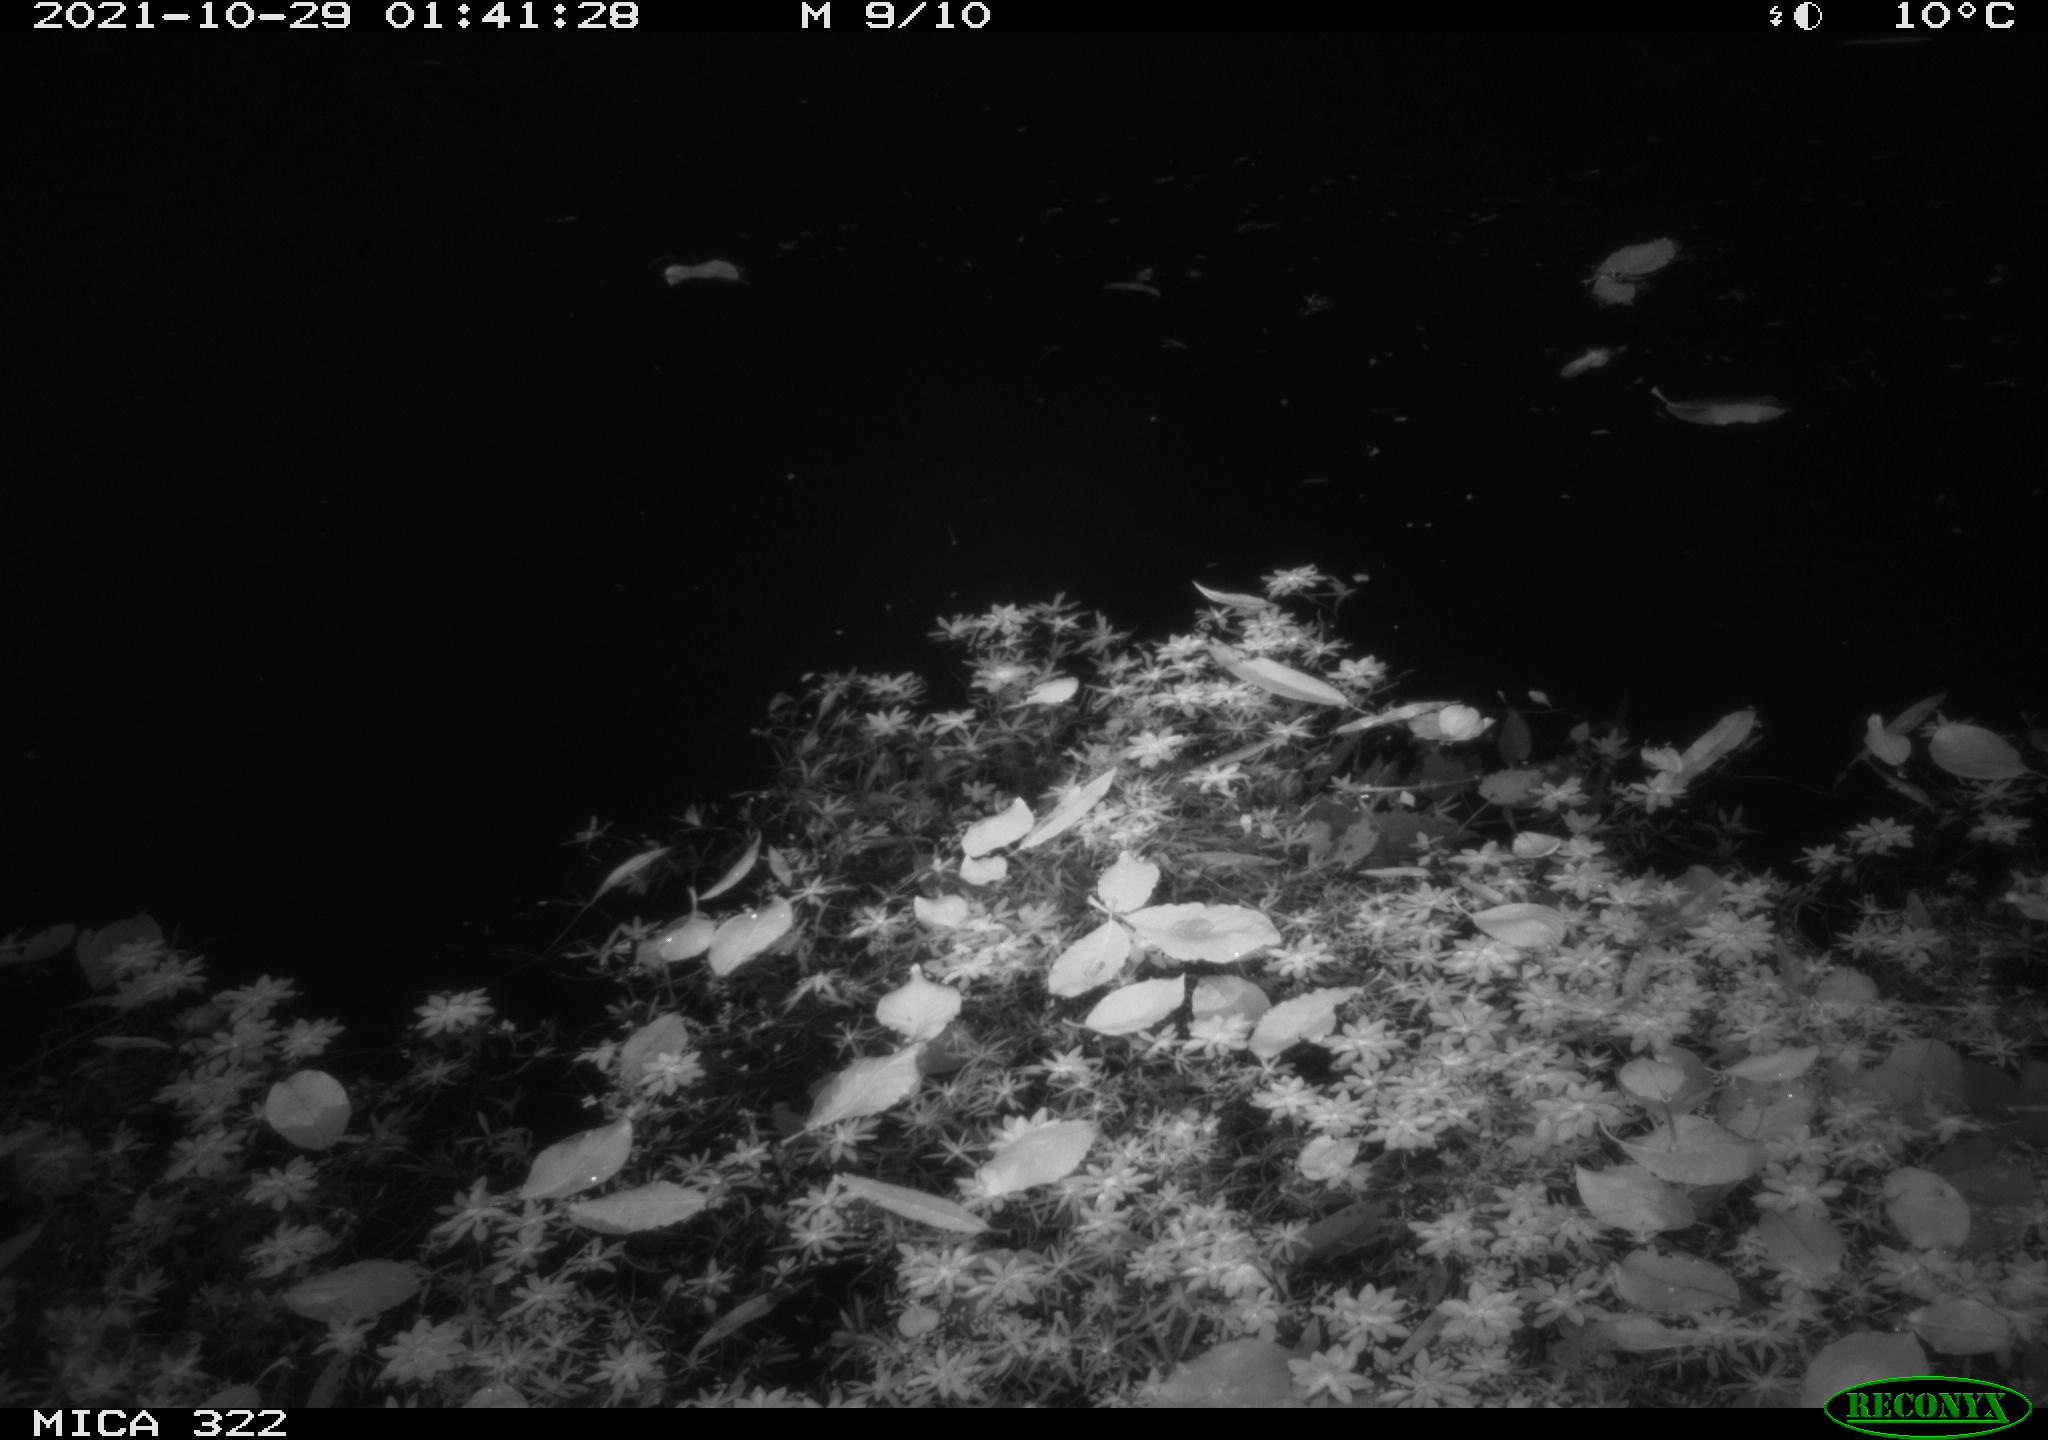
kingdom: Animalia
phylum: Chordata
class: Mammalia
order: Rodentia
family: Muridae
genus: Rattus
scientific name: Rattus norvegicus
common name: Brown rat
